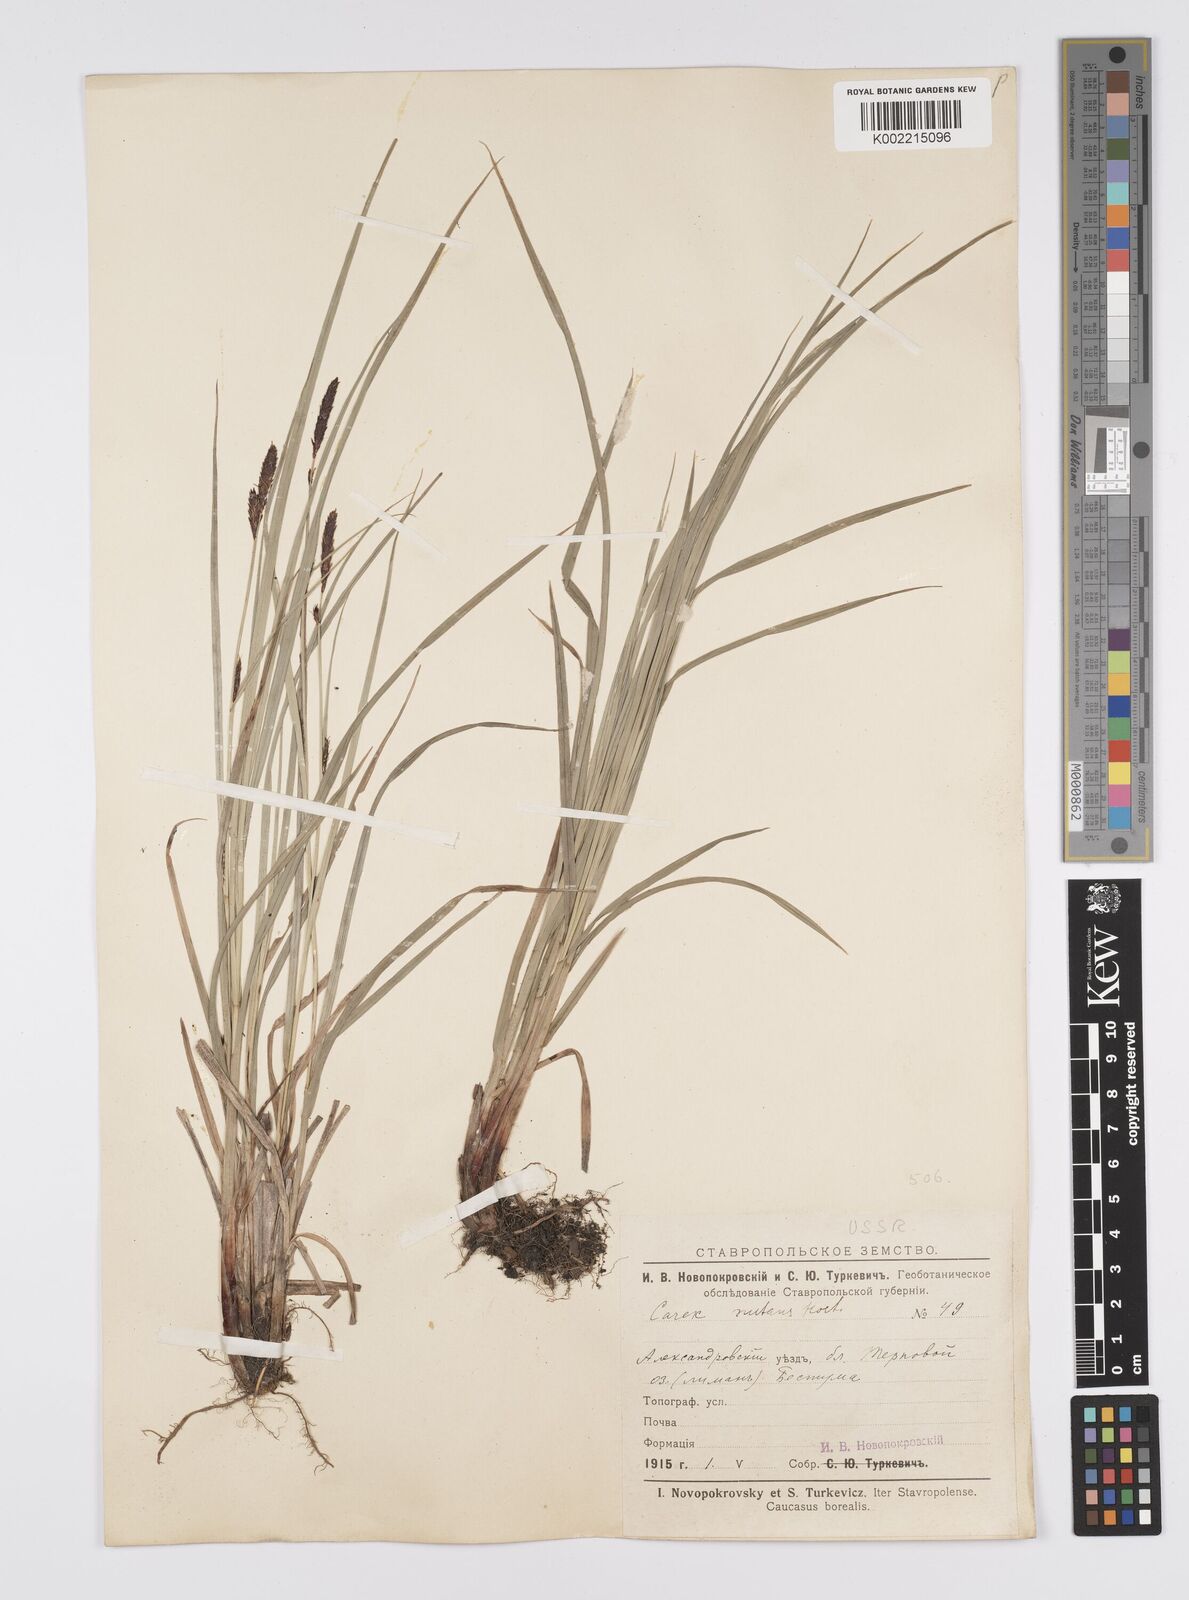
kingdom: Plantae
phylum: Tracheophyta
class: Liliopsida
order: Poales
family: Cyperaceae
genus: Carex
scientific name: Carex melanostachya
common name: Black-spiked sedge
